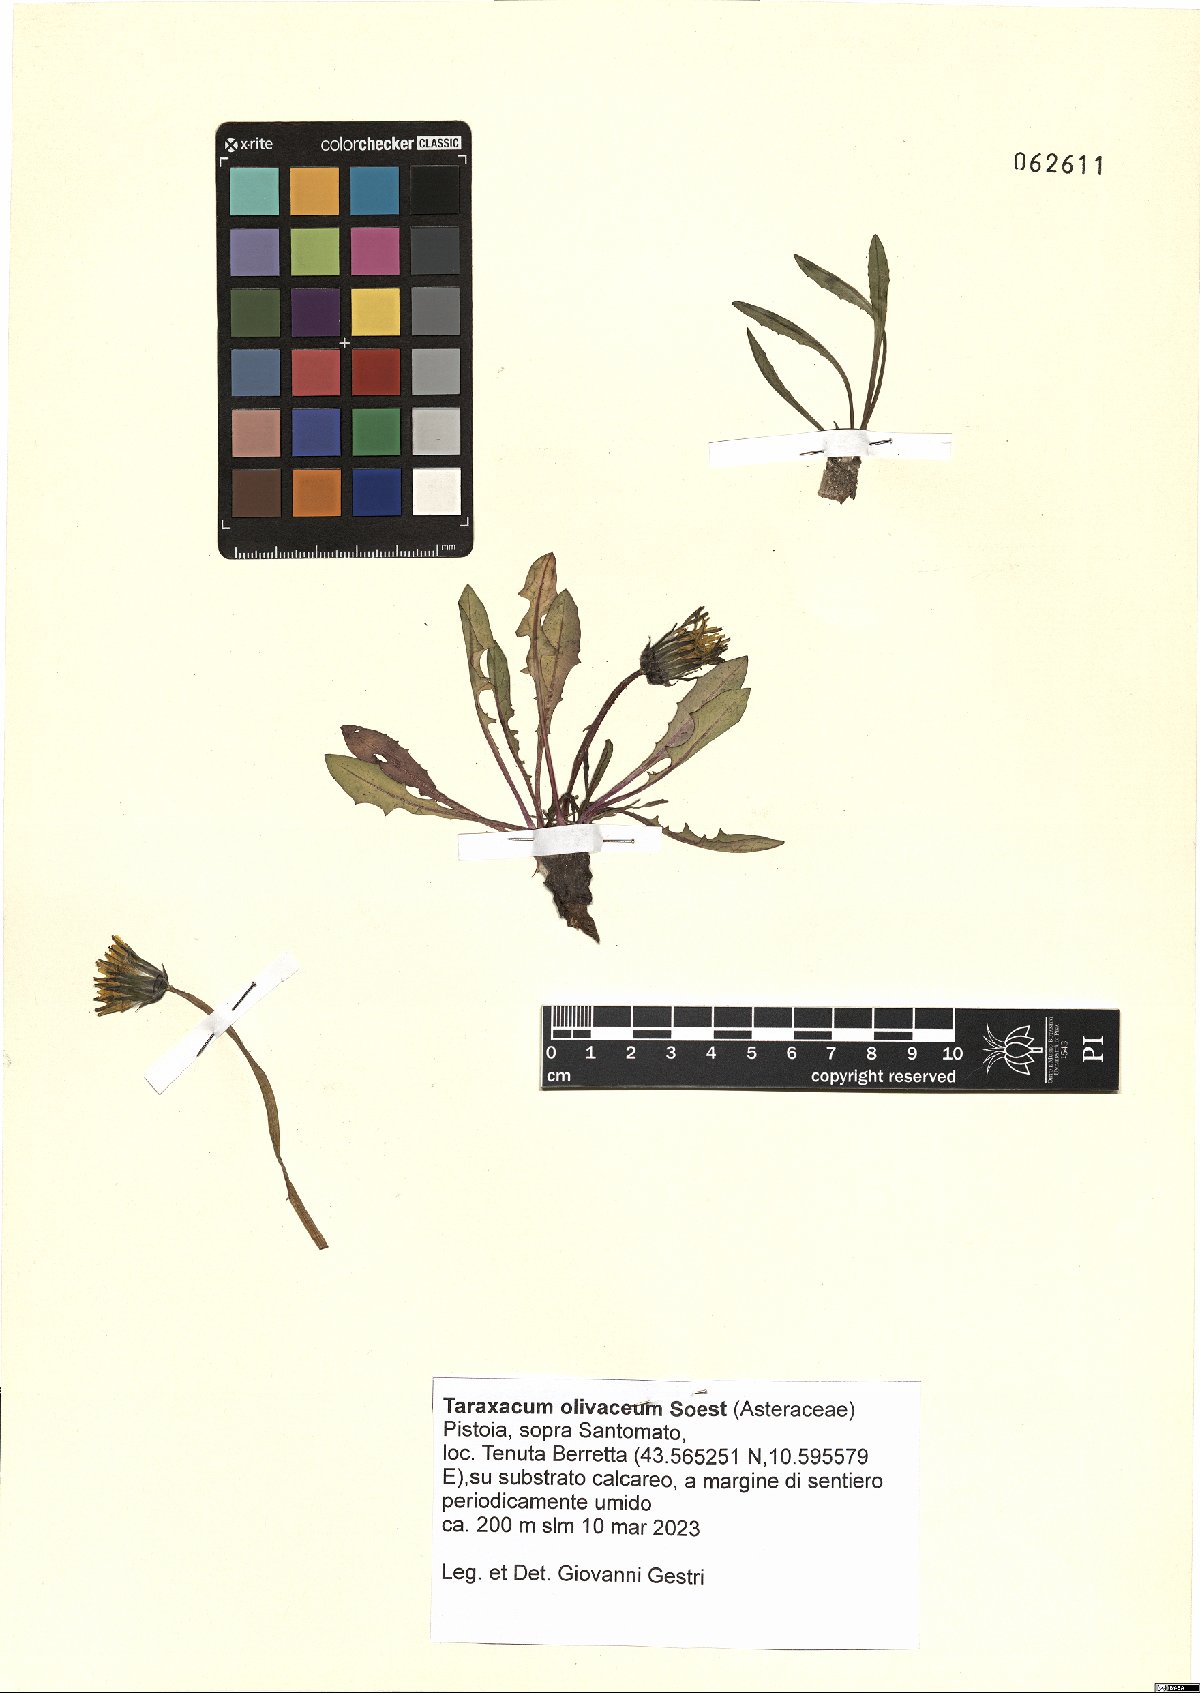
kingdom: Plantae
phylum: Tracheophyta
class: Magnoliopsida
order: Asterales
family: Asteraceae
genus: Taraxacum
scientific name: Taraxacum olivaceum
